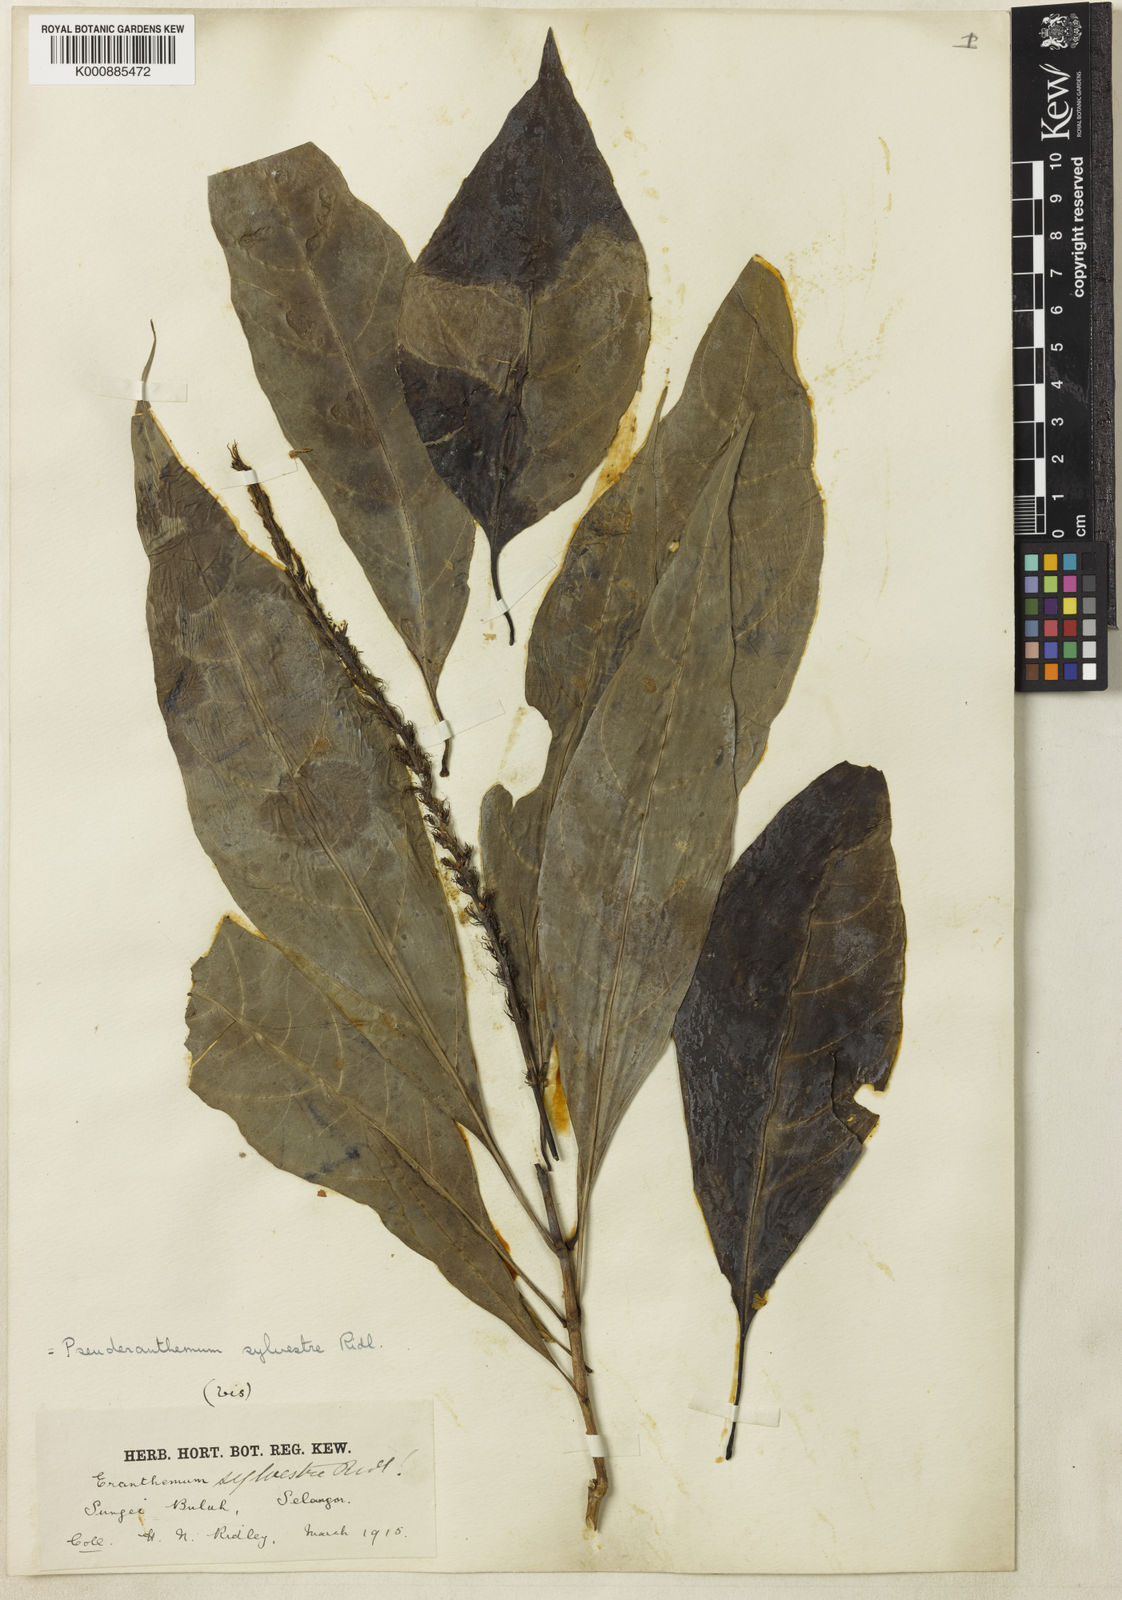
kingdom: Plantae
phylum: Tracheophyta
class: Magnoliopsida
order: Lamiales
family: Acanthaceae
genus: Pseuderanthemum
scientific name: Pseuderanthemum sylvestre
